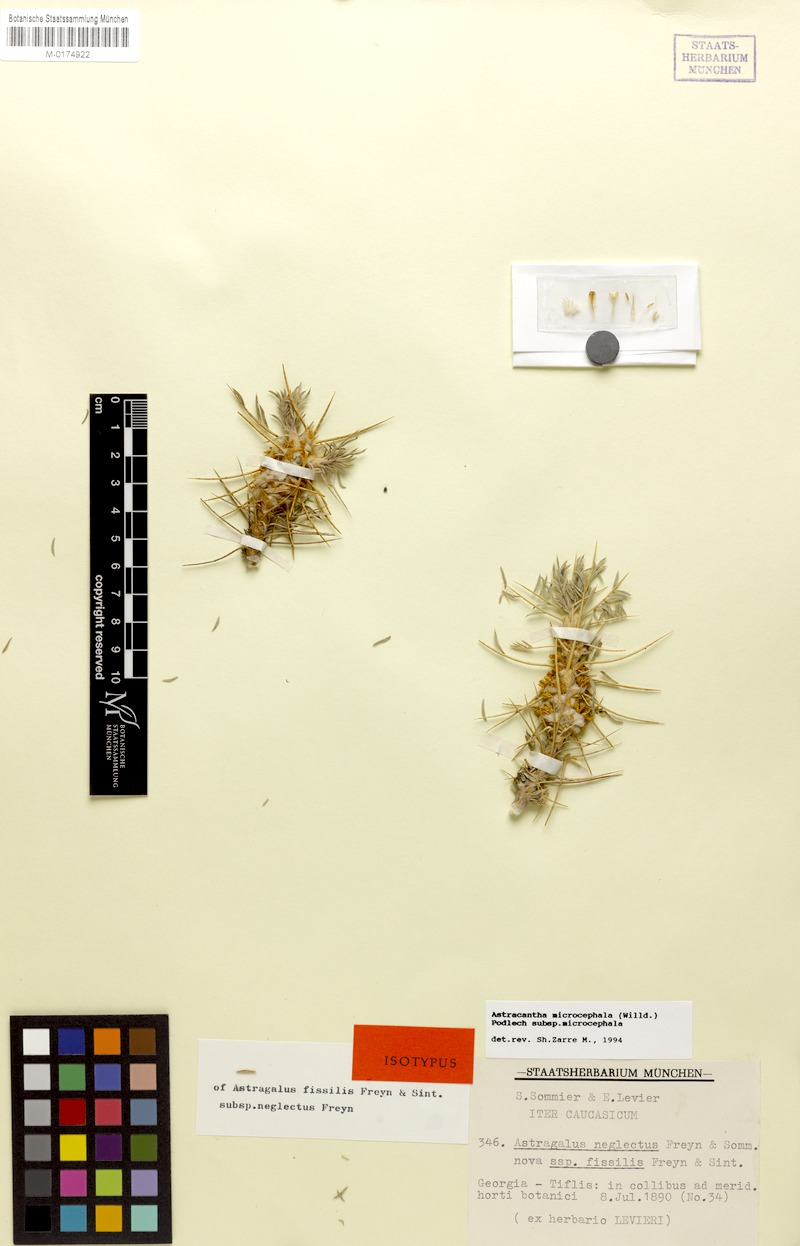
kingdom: Plantae
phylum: Tracheophyta
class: Magnoliopsida
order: Fabales
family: Fabaceae
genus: Astragalus
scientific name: Astragalus microcephalus
